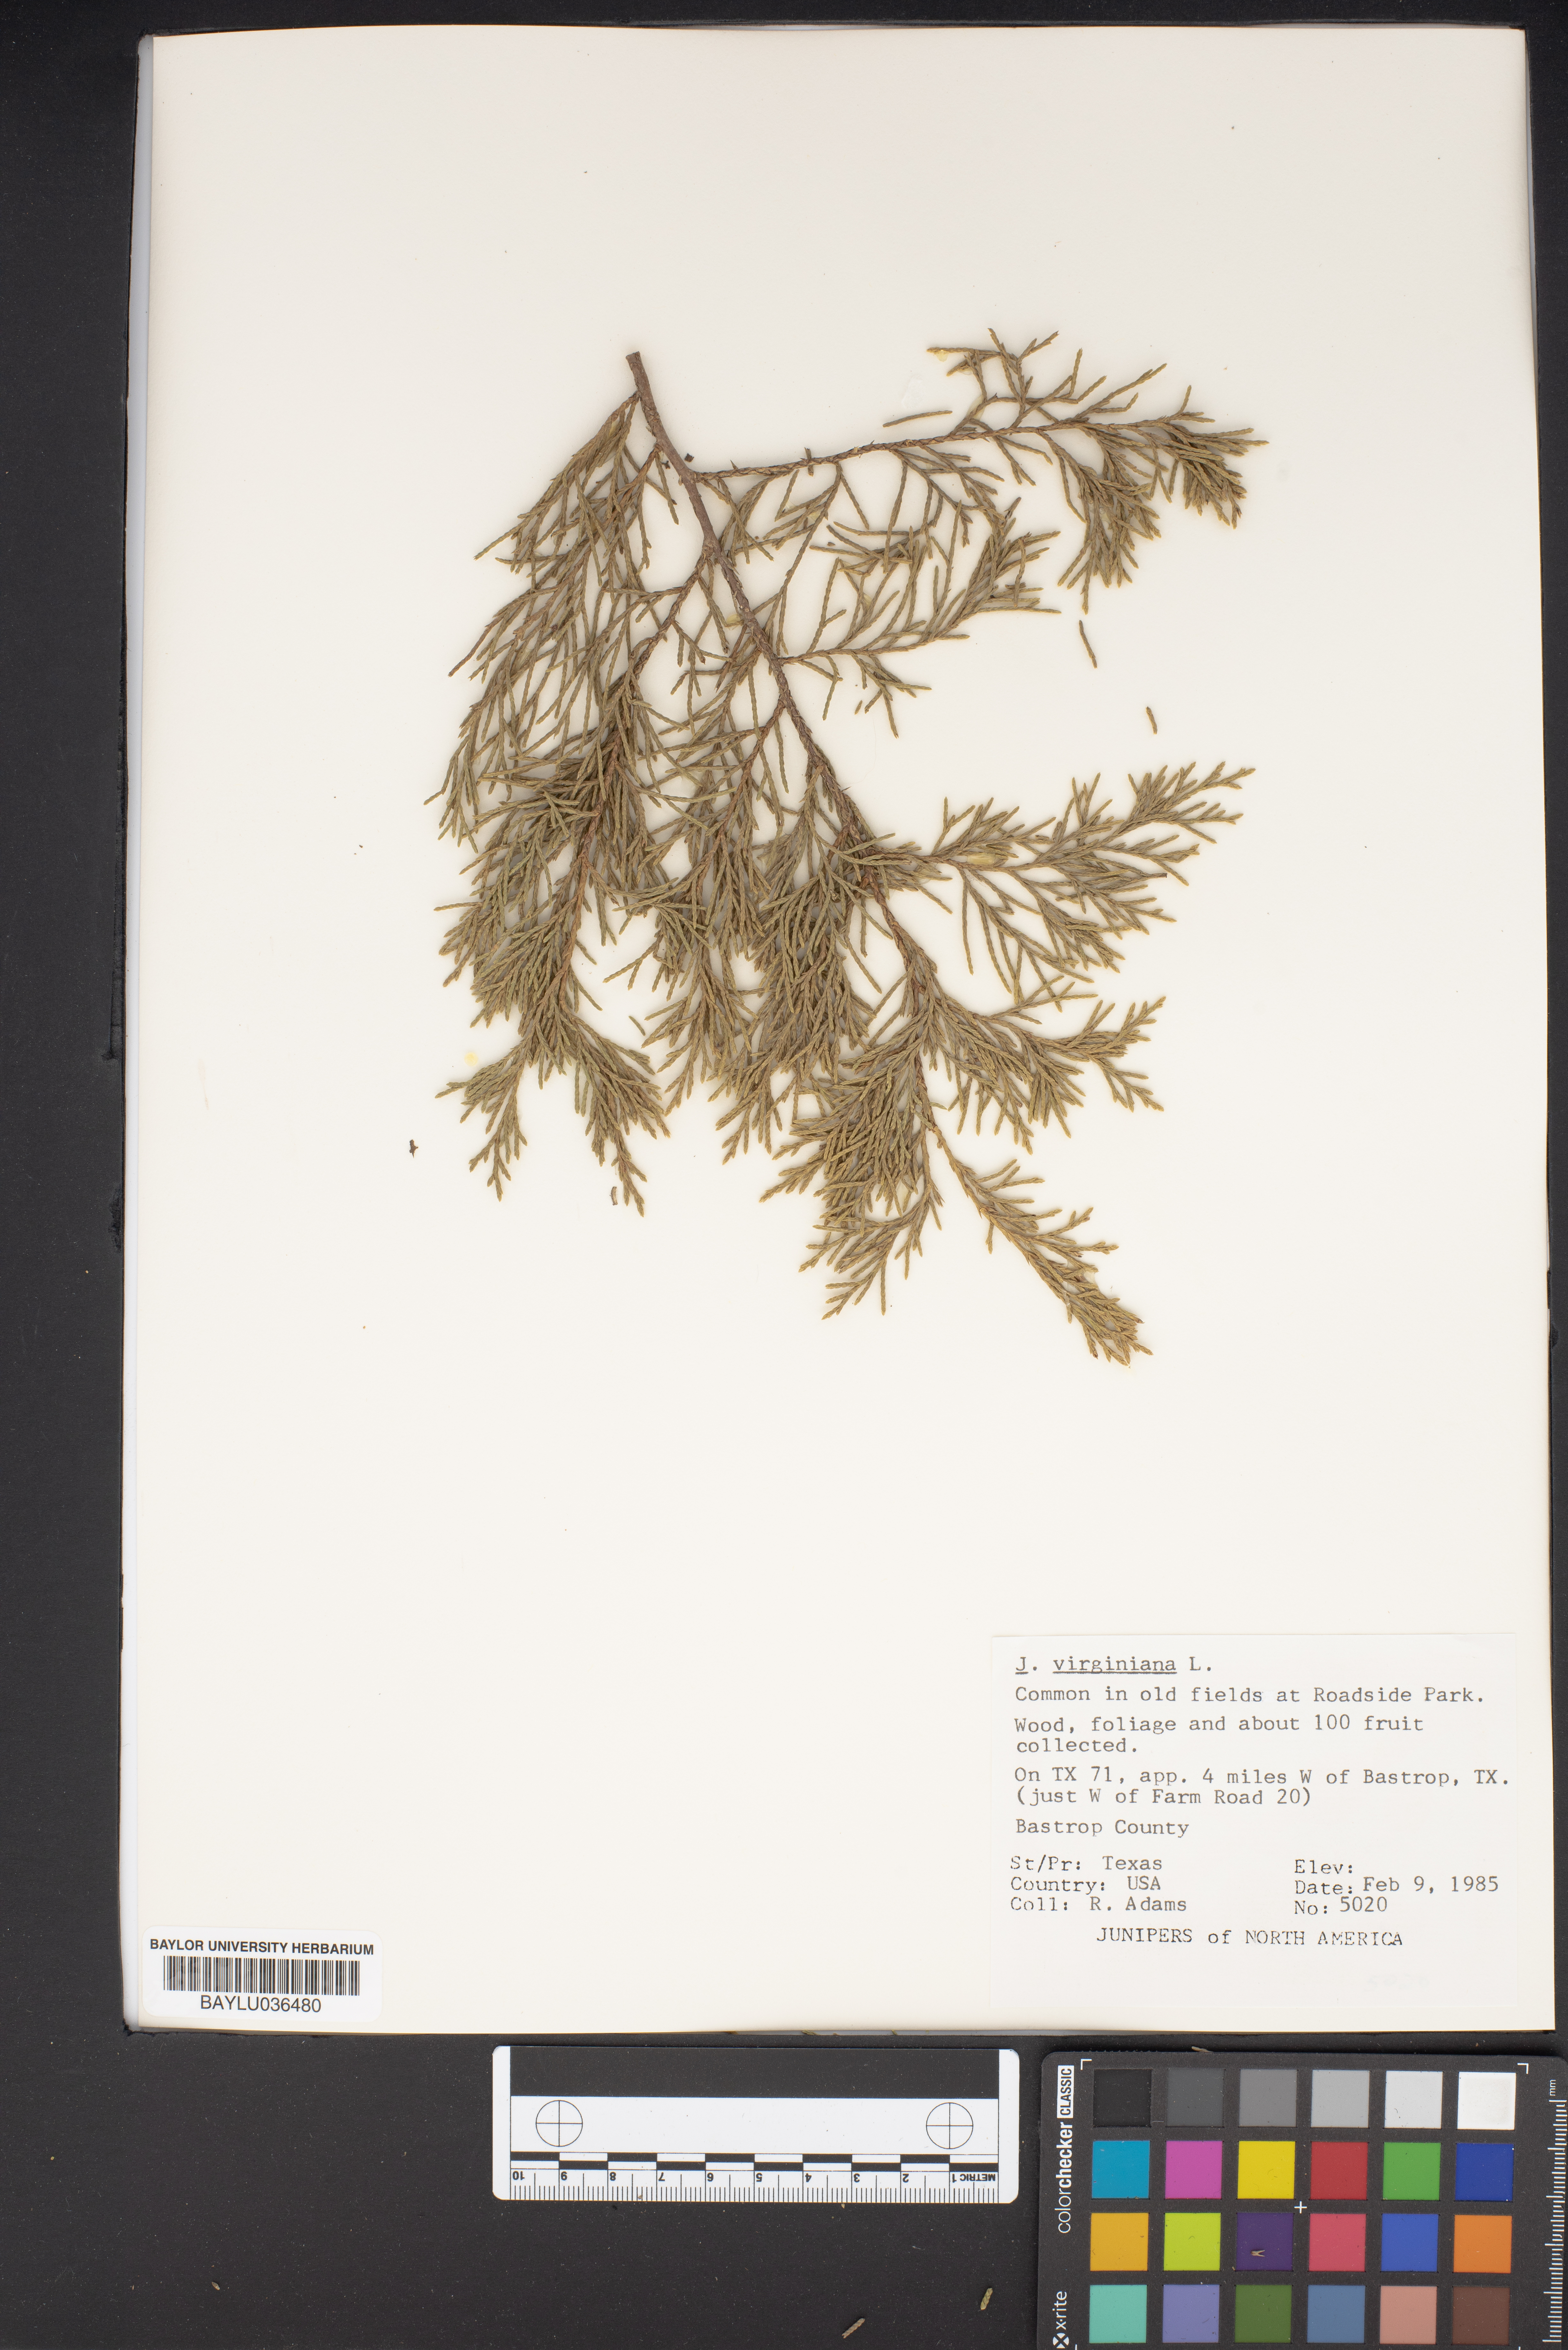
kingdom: Plantae
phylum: Tracheophyta
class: Pinopsida
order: Pinales
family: Cupressaceae
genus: Juniperus
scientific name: Juniperus virginiana
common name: Red juniper
